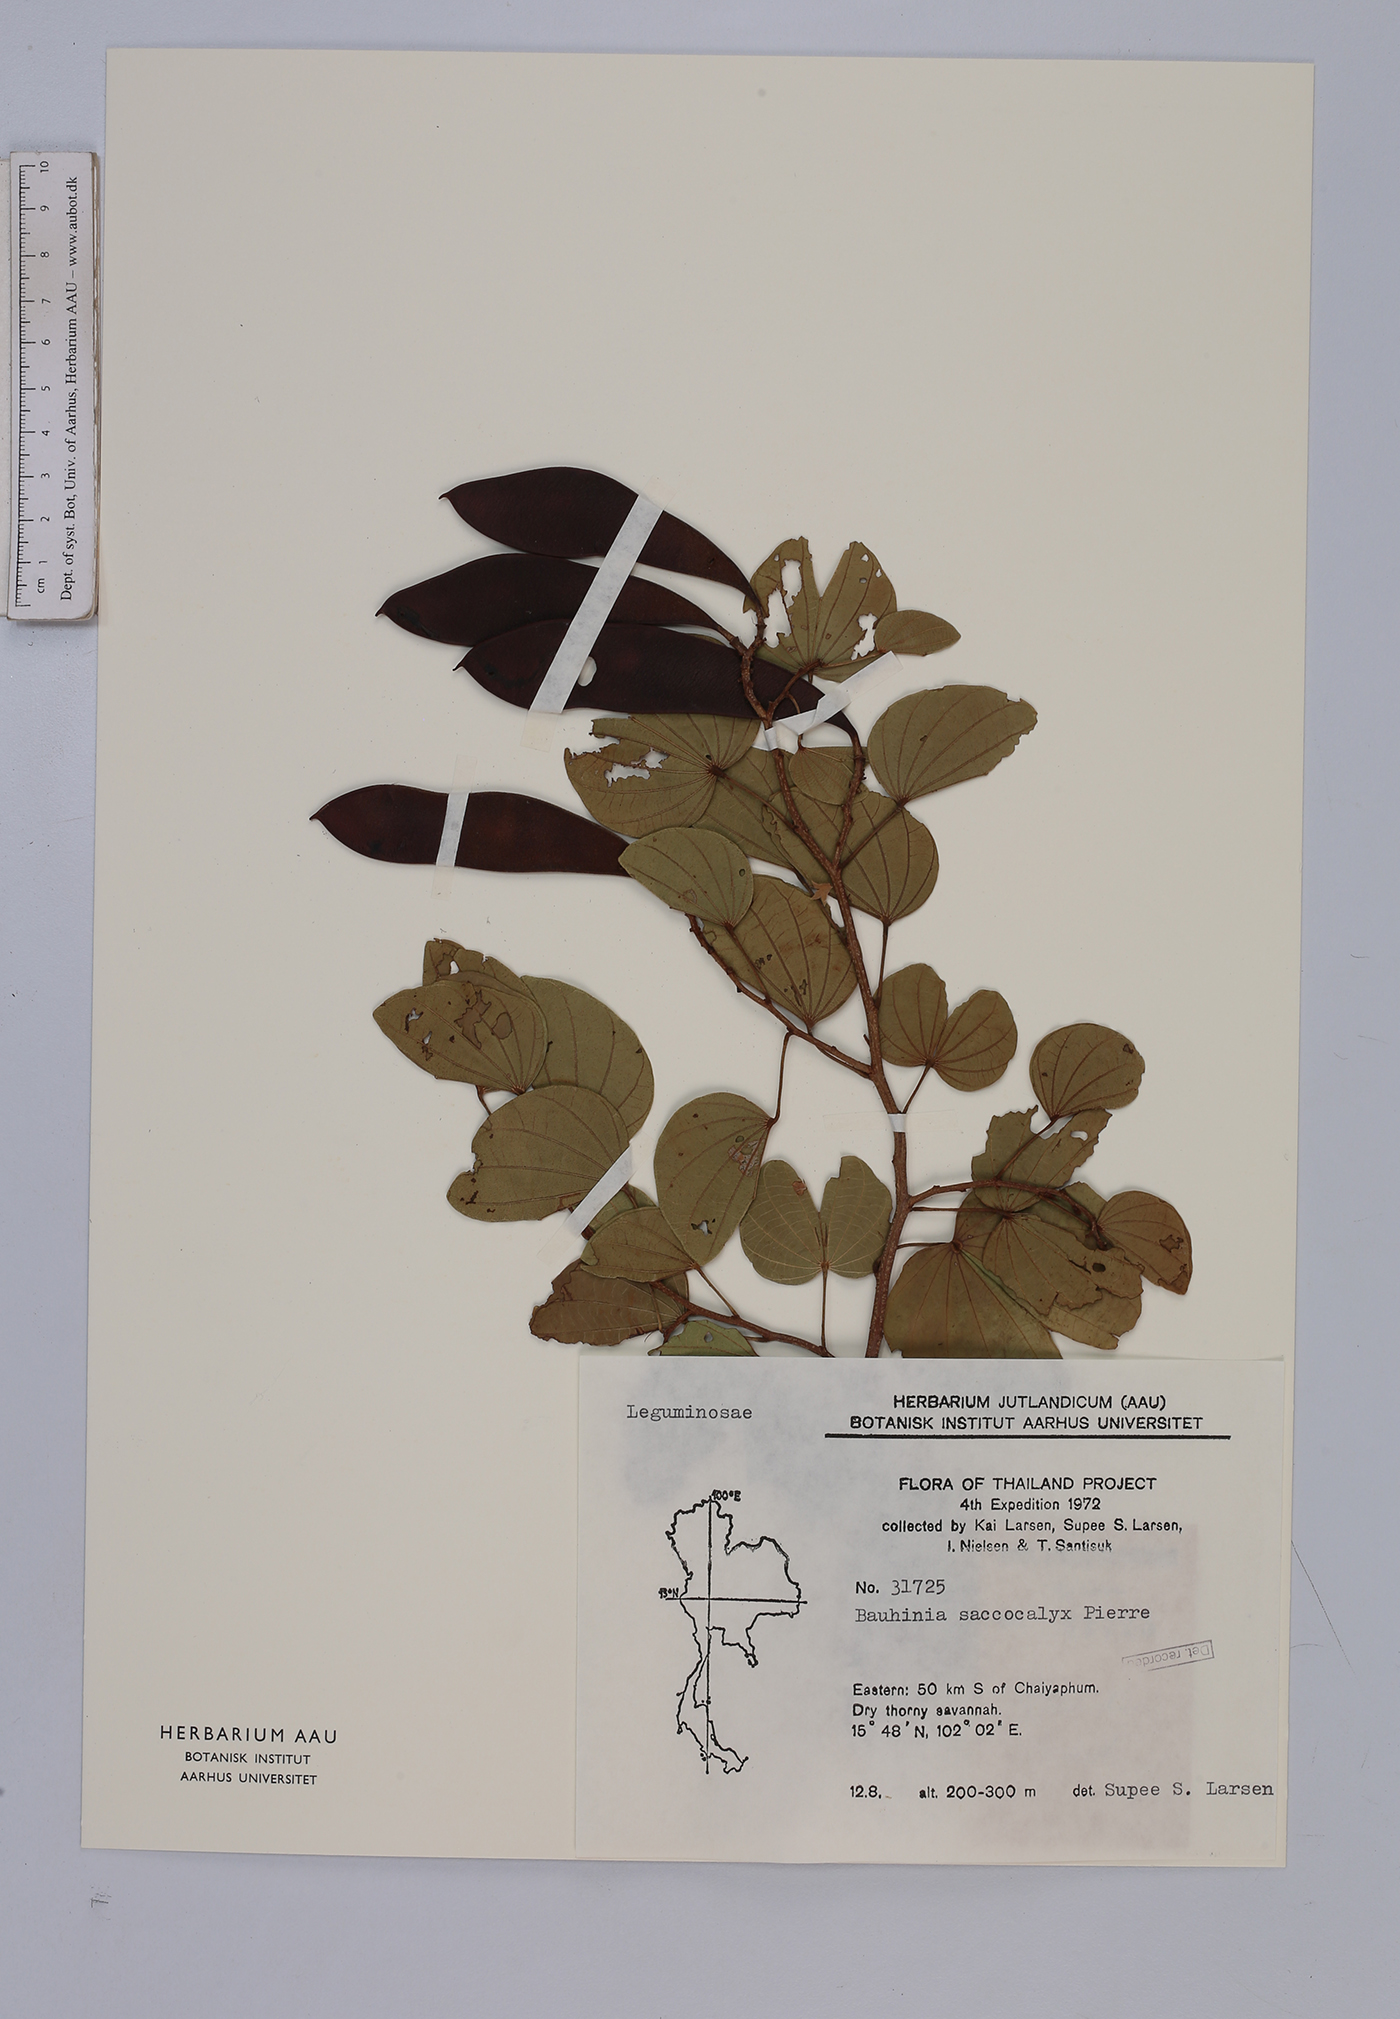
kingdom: Plantae
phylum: Tracheophyta
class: Magnoliopsida
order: Fabales
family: Fabaceae
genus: Bauhinia
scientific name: Bauhinia saccocalyx
